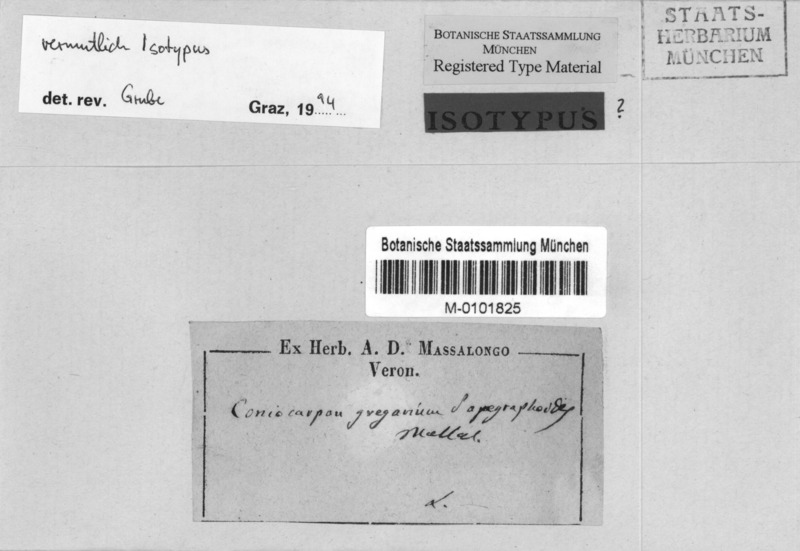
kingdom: Fungi
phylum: Ascomycota
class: Arthoniomycetes
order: Arthoniales
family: Arthoniaceae
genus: Coniocarpon
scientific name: Coniocarpon fallax
